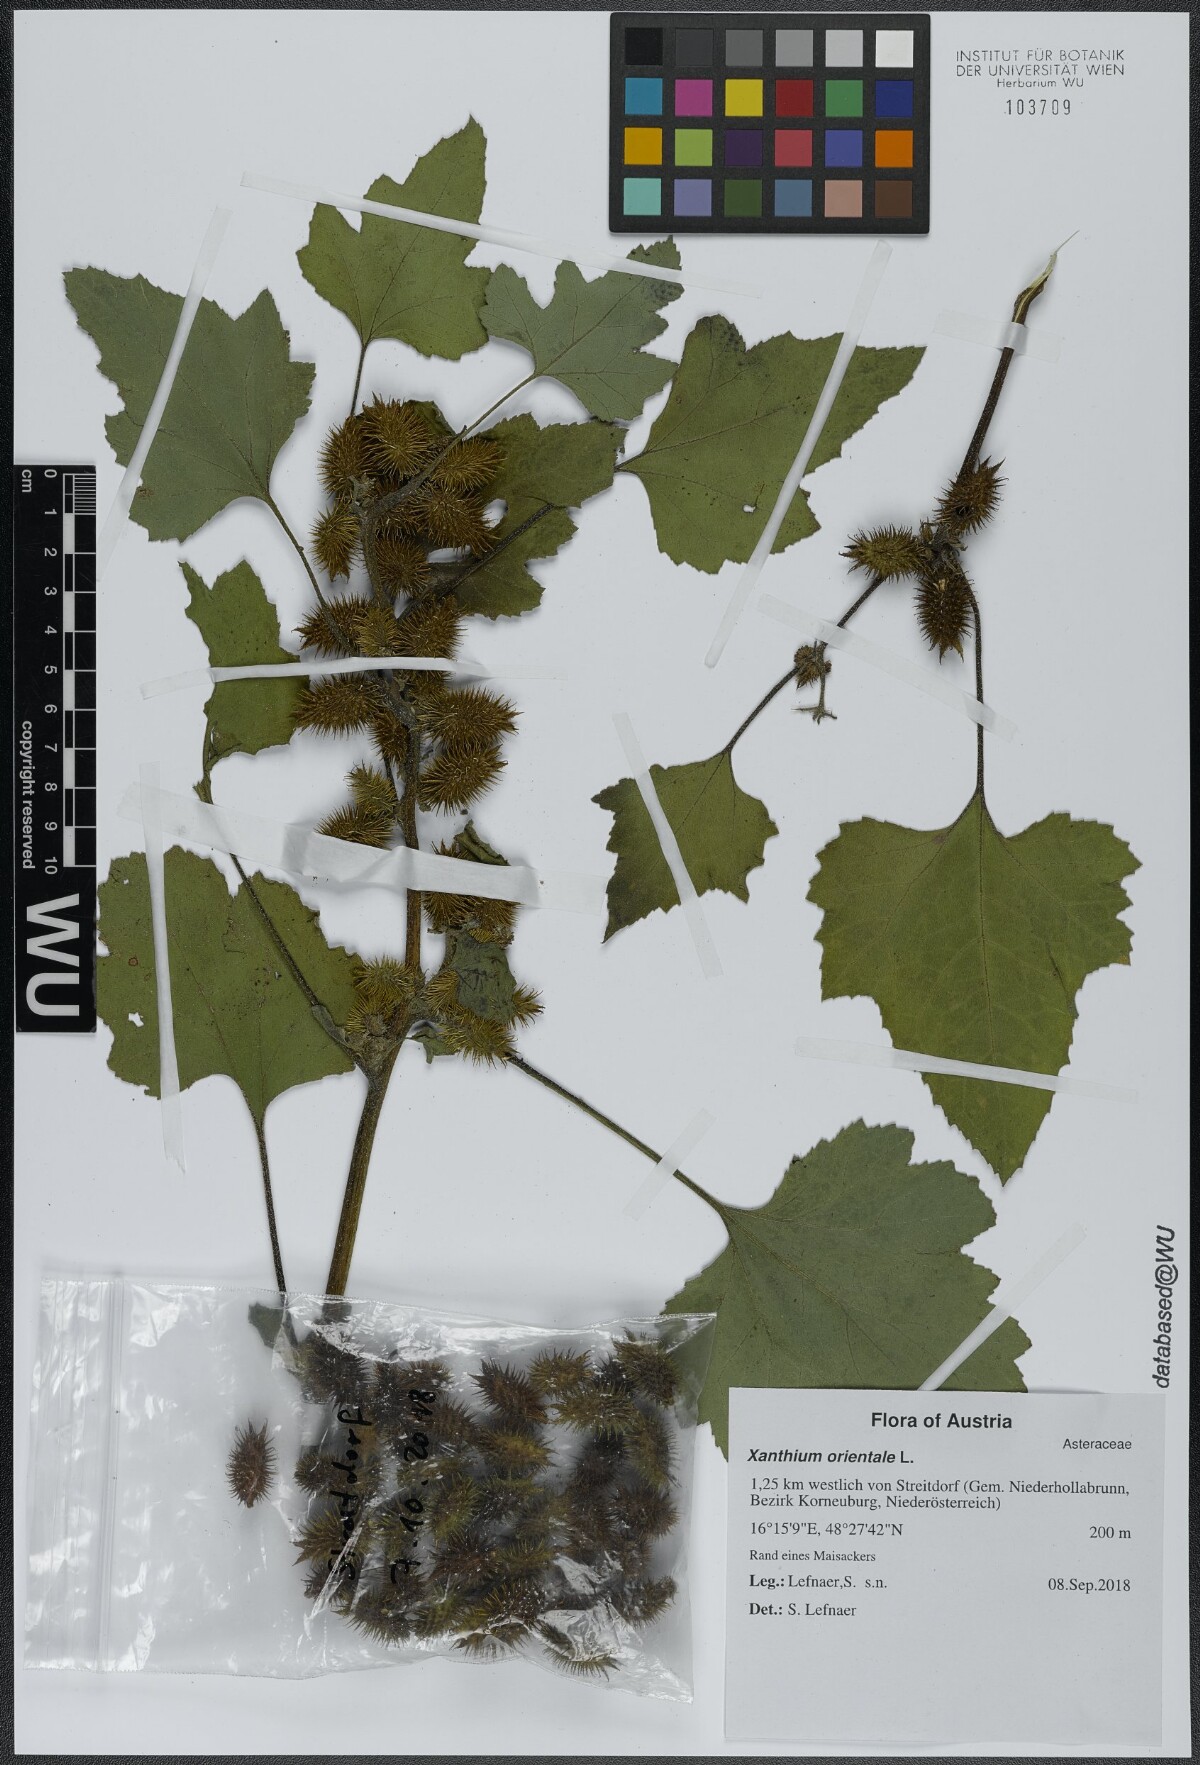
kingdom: Plantae
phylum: Tracheophyta
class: Magnoliopsida
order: Asterales
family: Asteraceae
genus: Xanthium
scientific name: Xanthium orientale
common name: Californian burr
